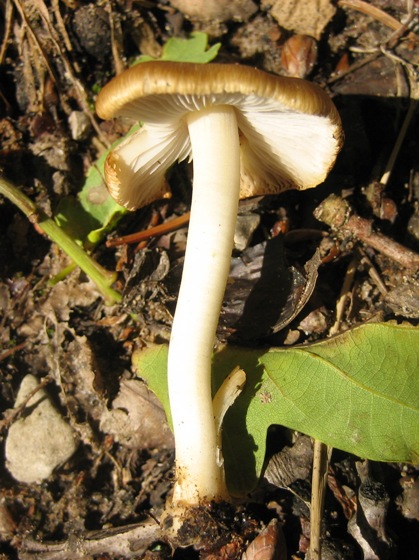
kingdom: Fungi
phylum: Basidiomycota
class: Agaricomycetes
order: Agaricales
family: Tricholomataceae
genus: Megacollybia
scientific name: Megacollybia platyphylla
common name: bredbladet væbnerhat
